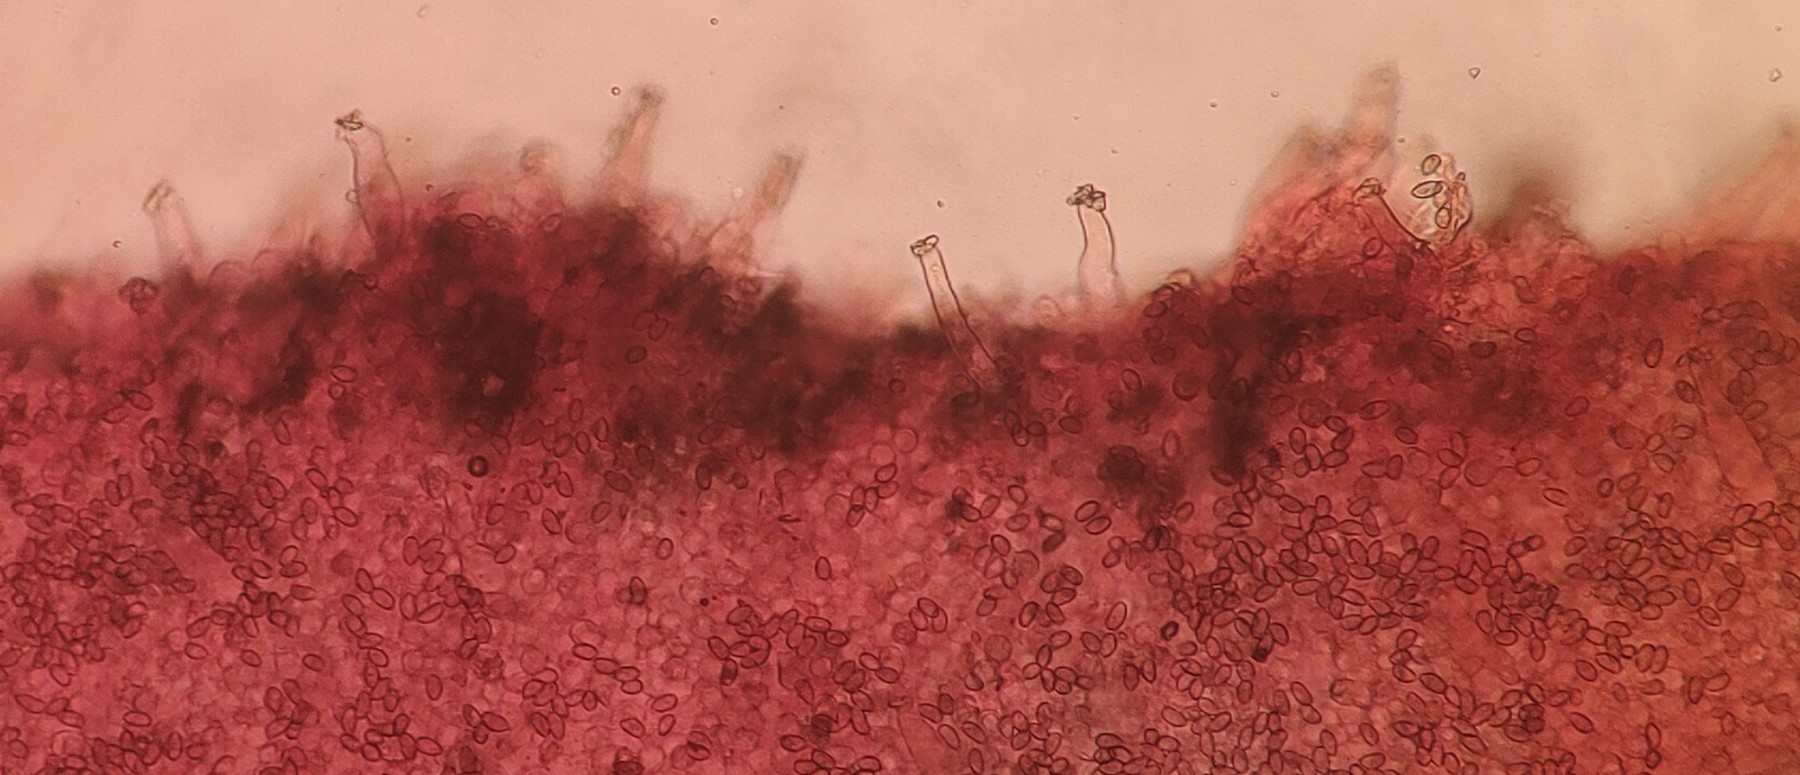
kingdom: Fungi
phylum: Basidiomycota
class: Agaricomycetes
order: Agaricales
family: Inocybaceae
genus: Inocybe
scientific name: Inocybe
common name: trævlhat
